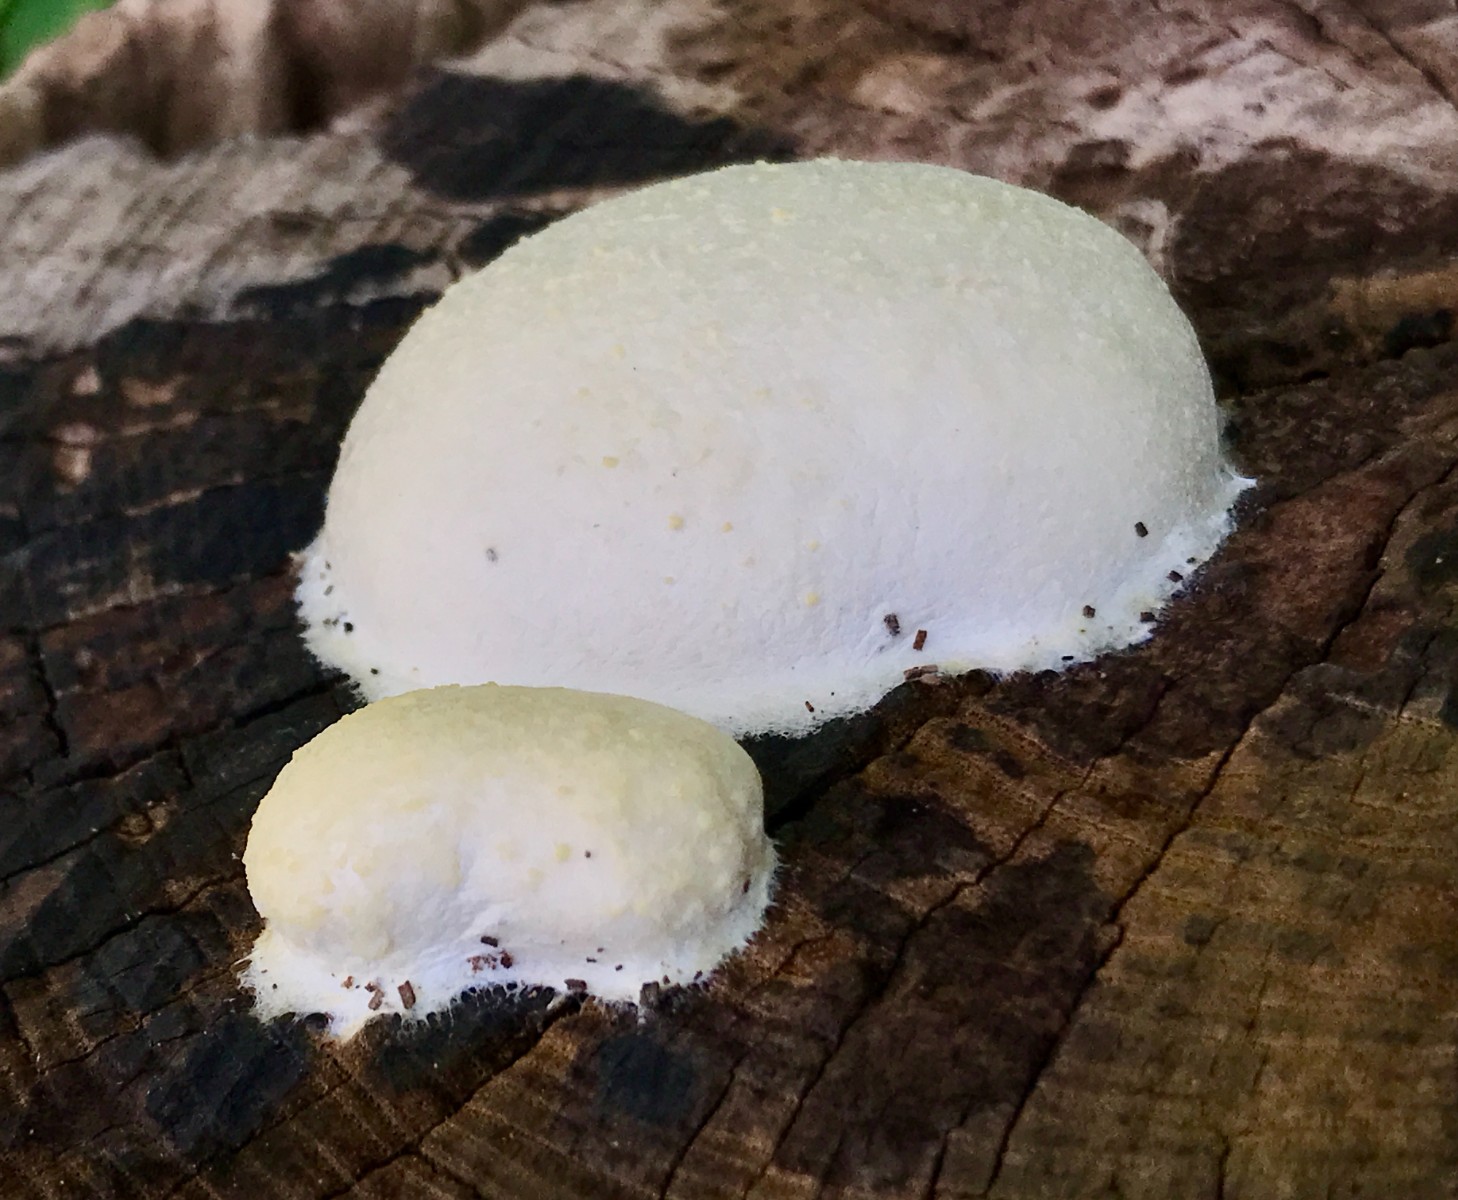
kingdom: Protozoa
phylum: Mycetozoa
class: Myxomycetes
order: Cribrariales
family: Tubiferaceae
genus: Reticularia
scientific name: Reticularia lycoperdon
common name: skinnende støvpude
